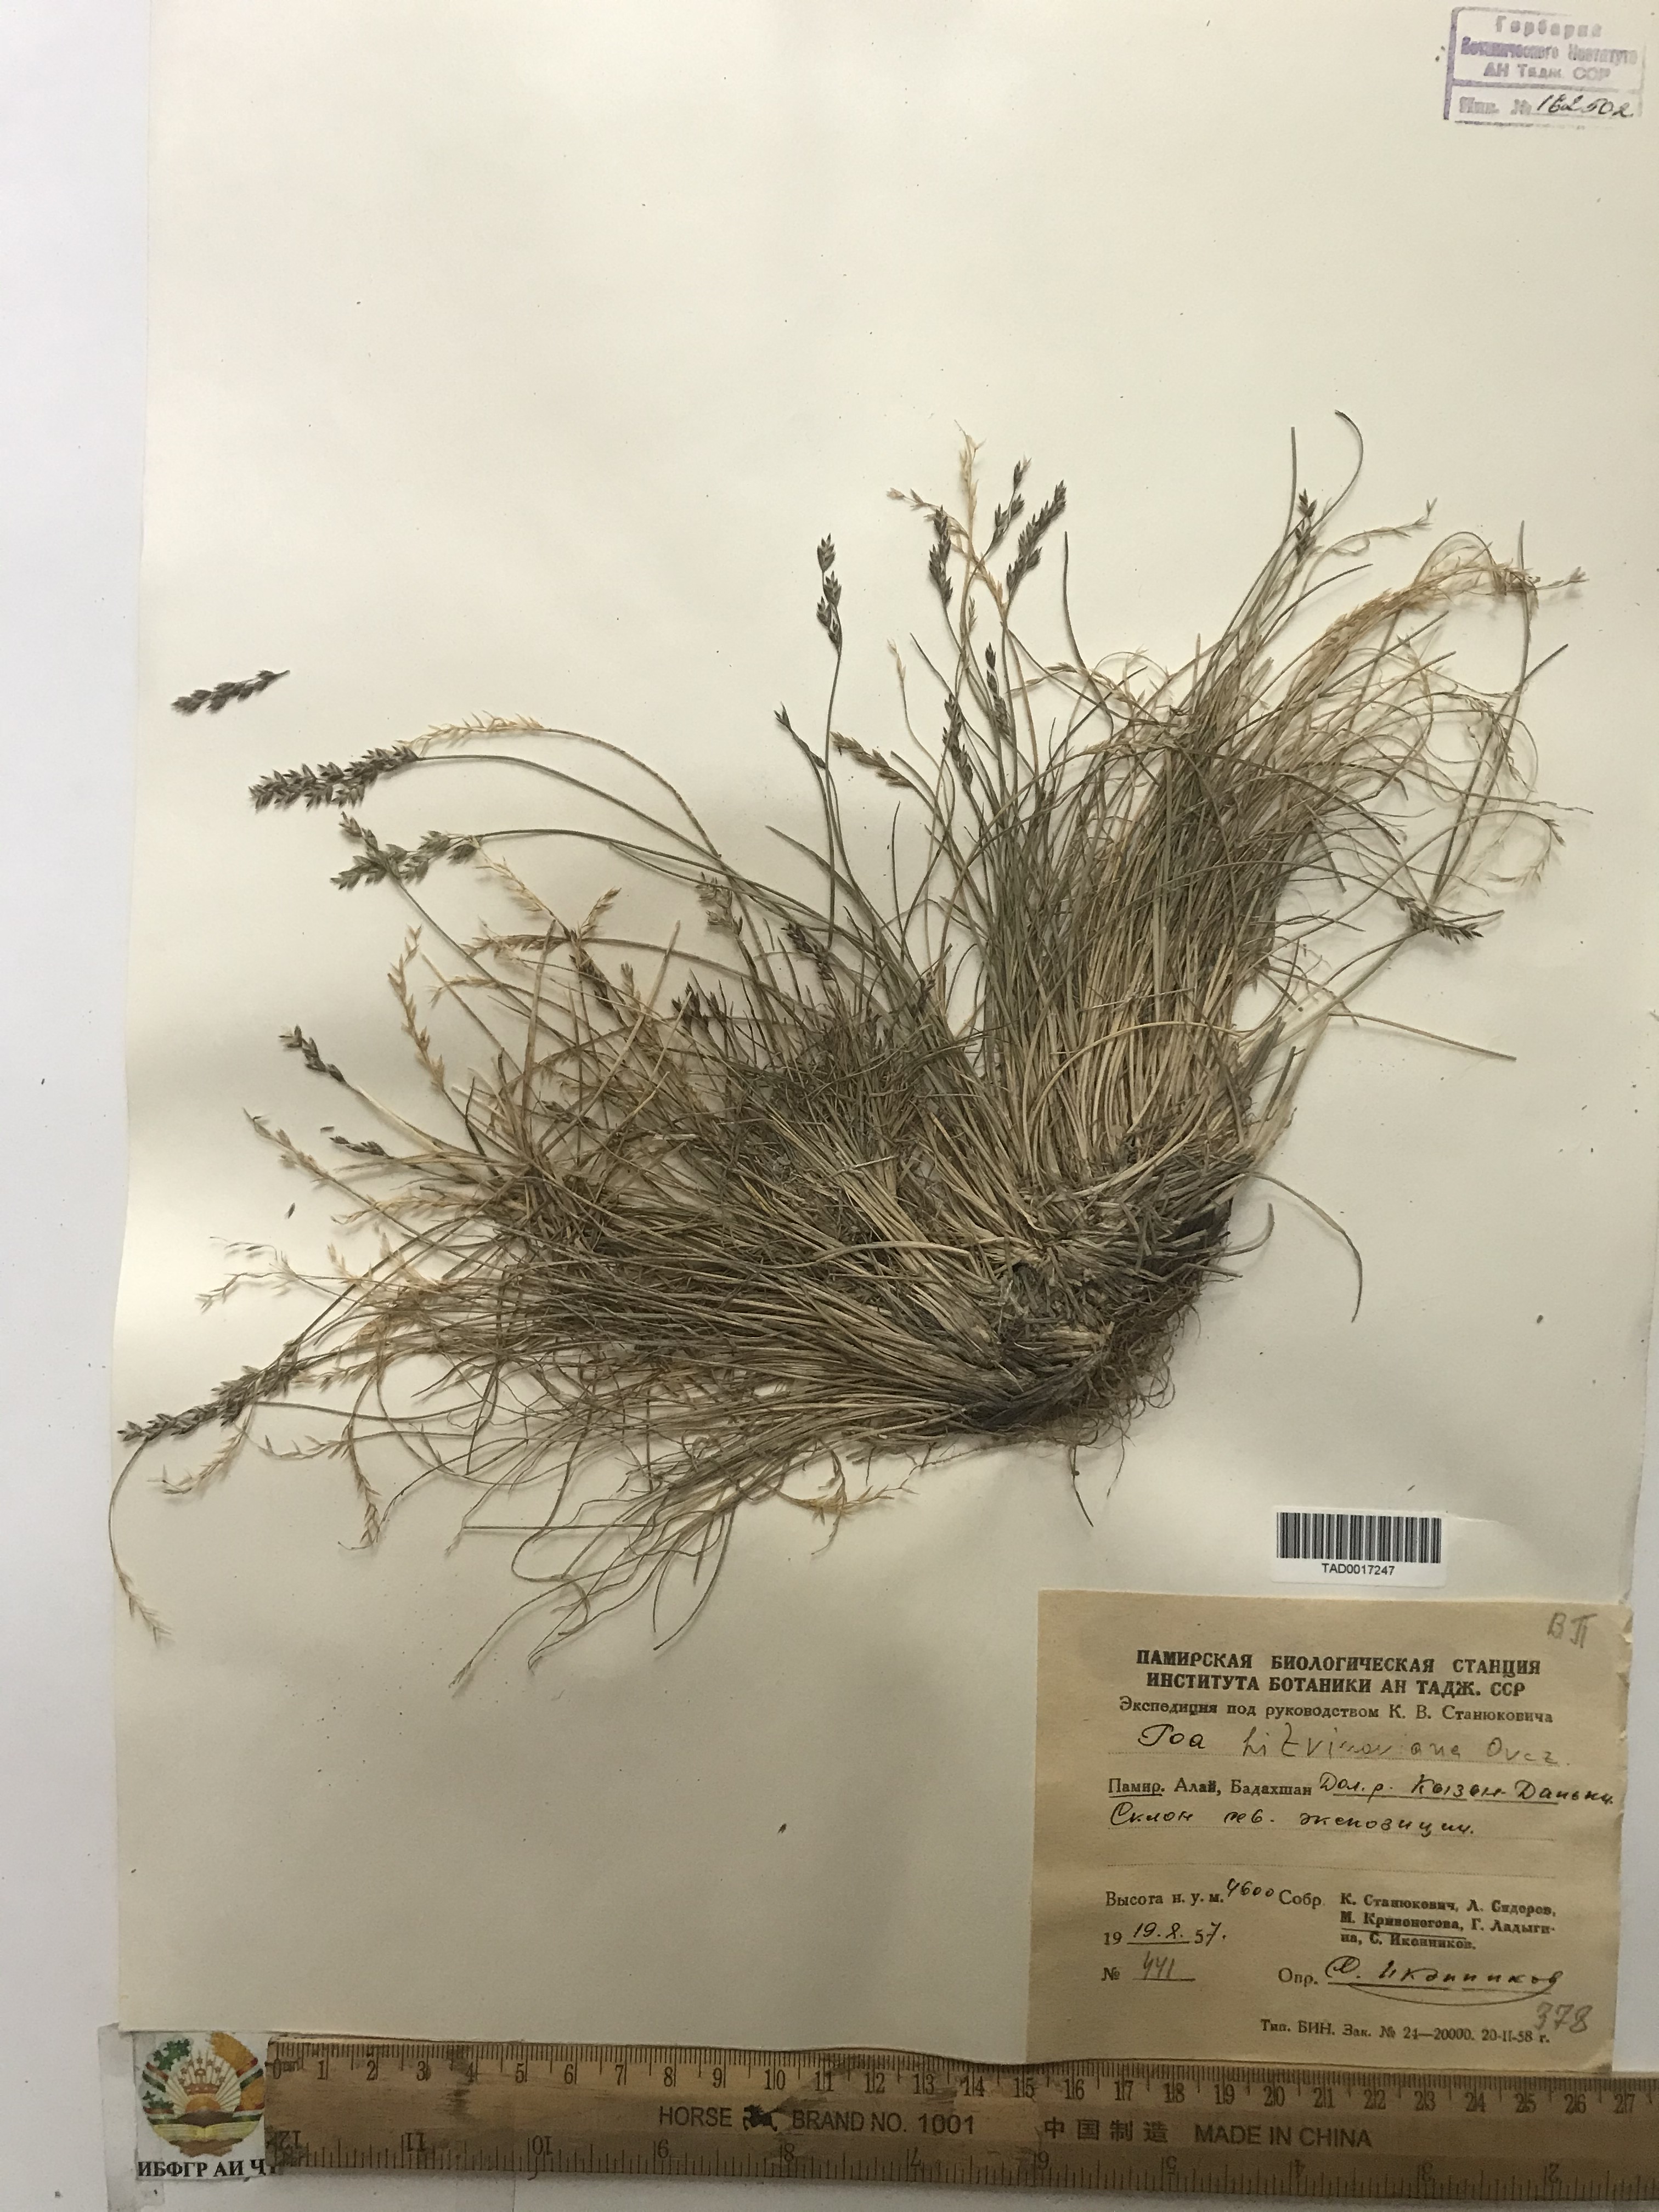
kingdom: Plantae
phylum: Tracheophyta
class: Liliopsida
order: Poales
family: Poaceae
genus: Poa
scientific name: Poa glauca
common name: Glaucous bluegrass
